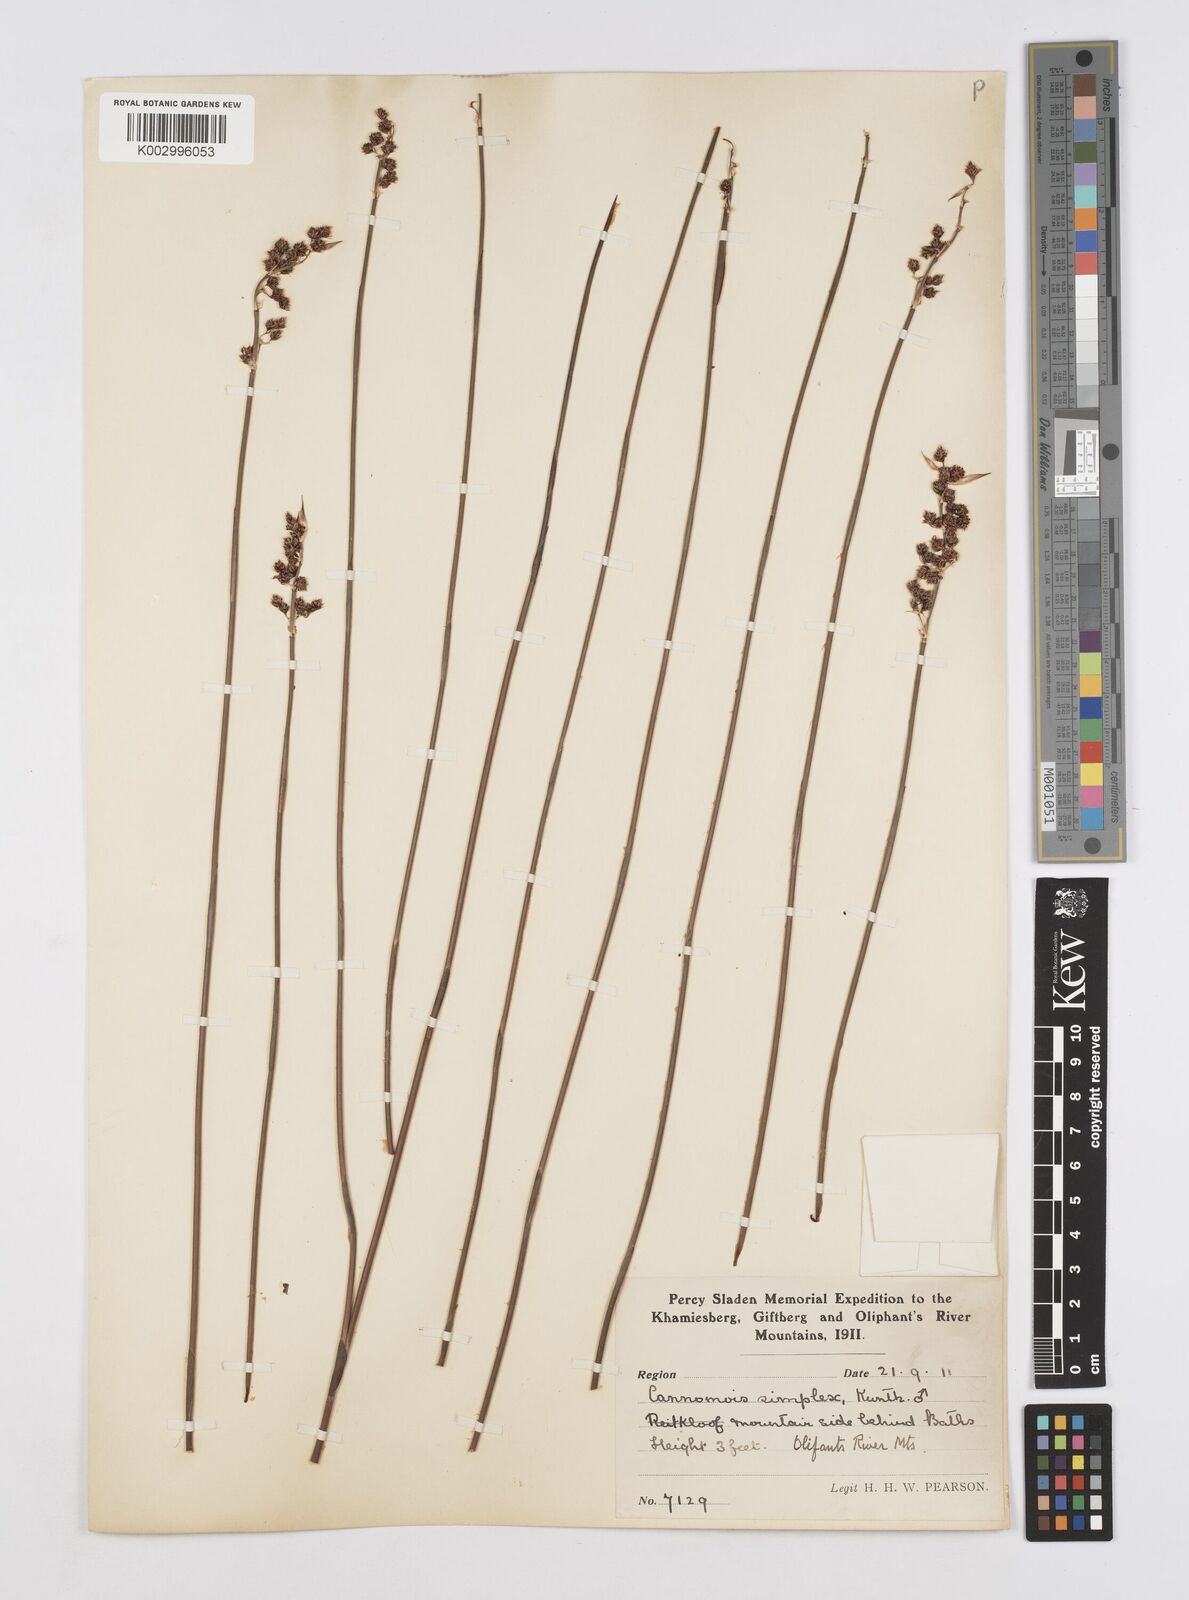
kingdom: Plantae
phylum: Tracheophyta
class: Liliopsida
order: Poales
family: Restionaceae
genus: Cannomois
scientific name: Cannomois parviflora
